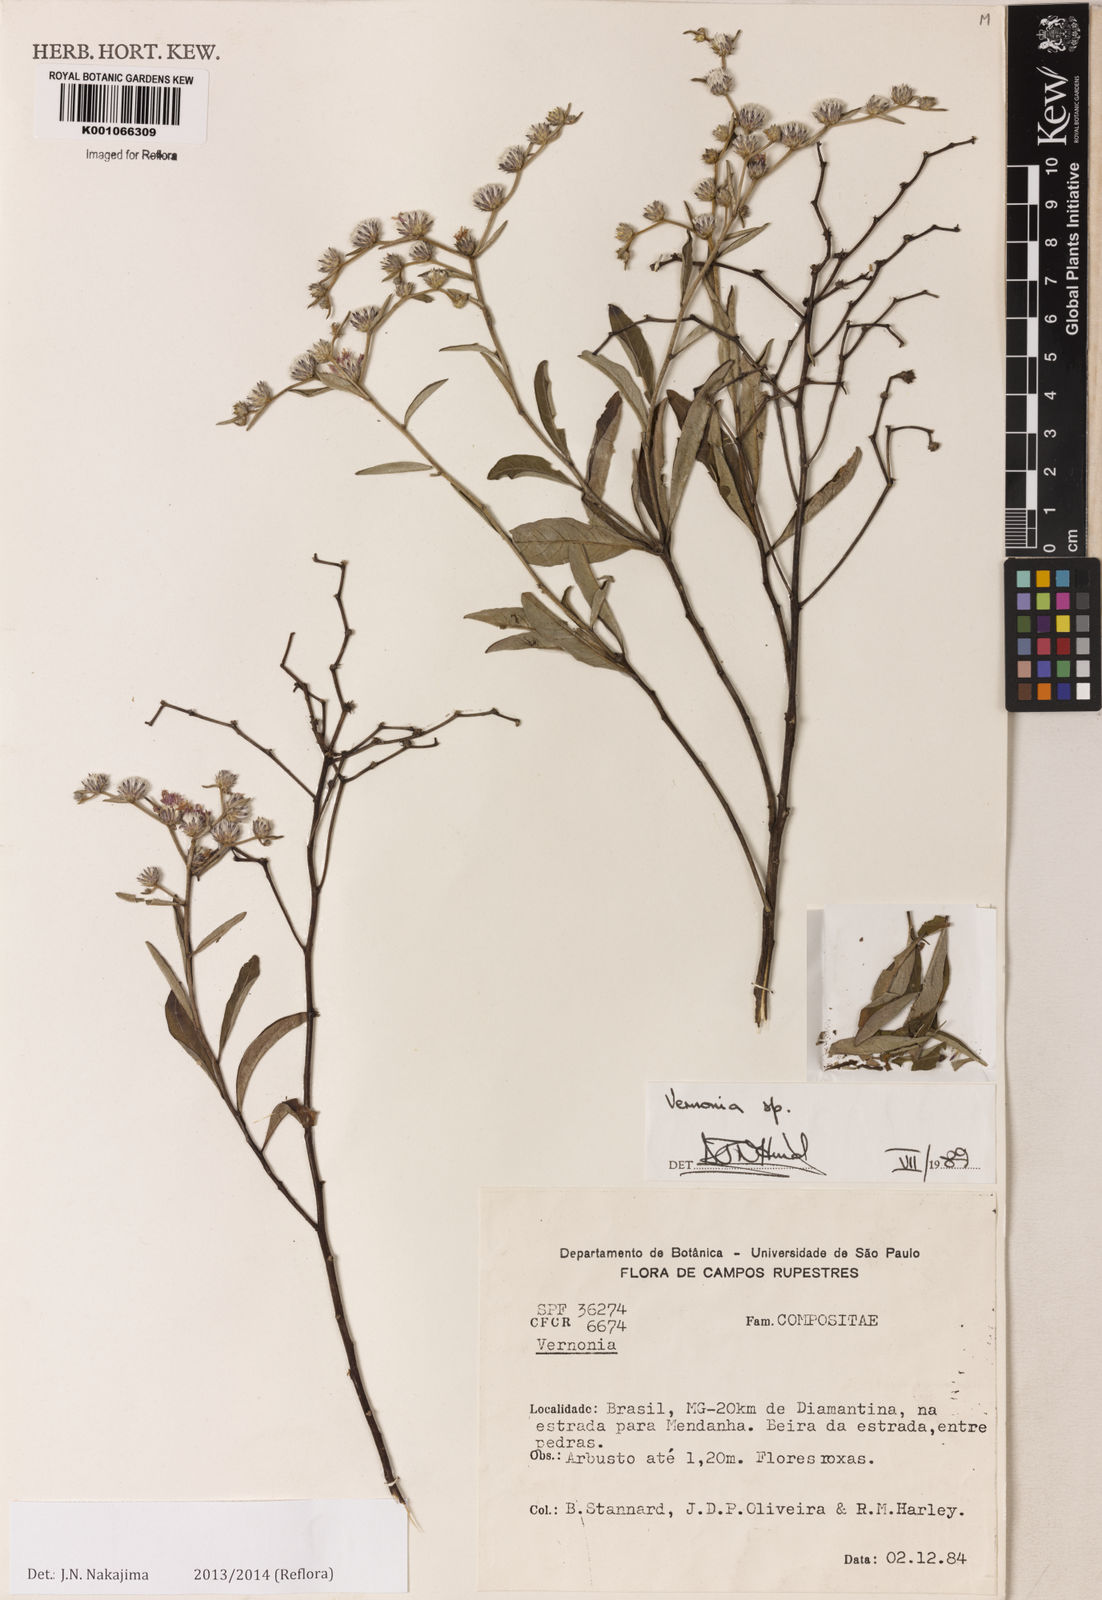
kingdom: Plantae
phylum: Tracheophyta
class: Magnoliopsida
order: Asterales
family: Asteraceae
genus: Lepidaploa
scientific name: Lepidaploa chalybaea
